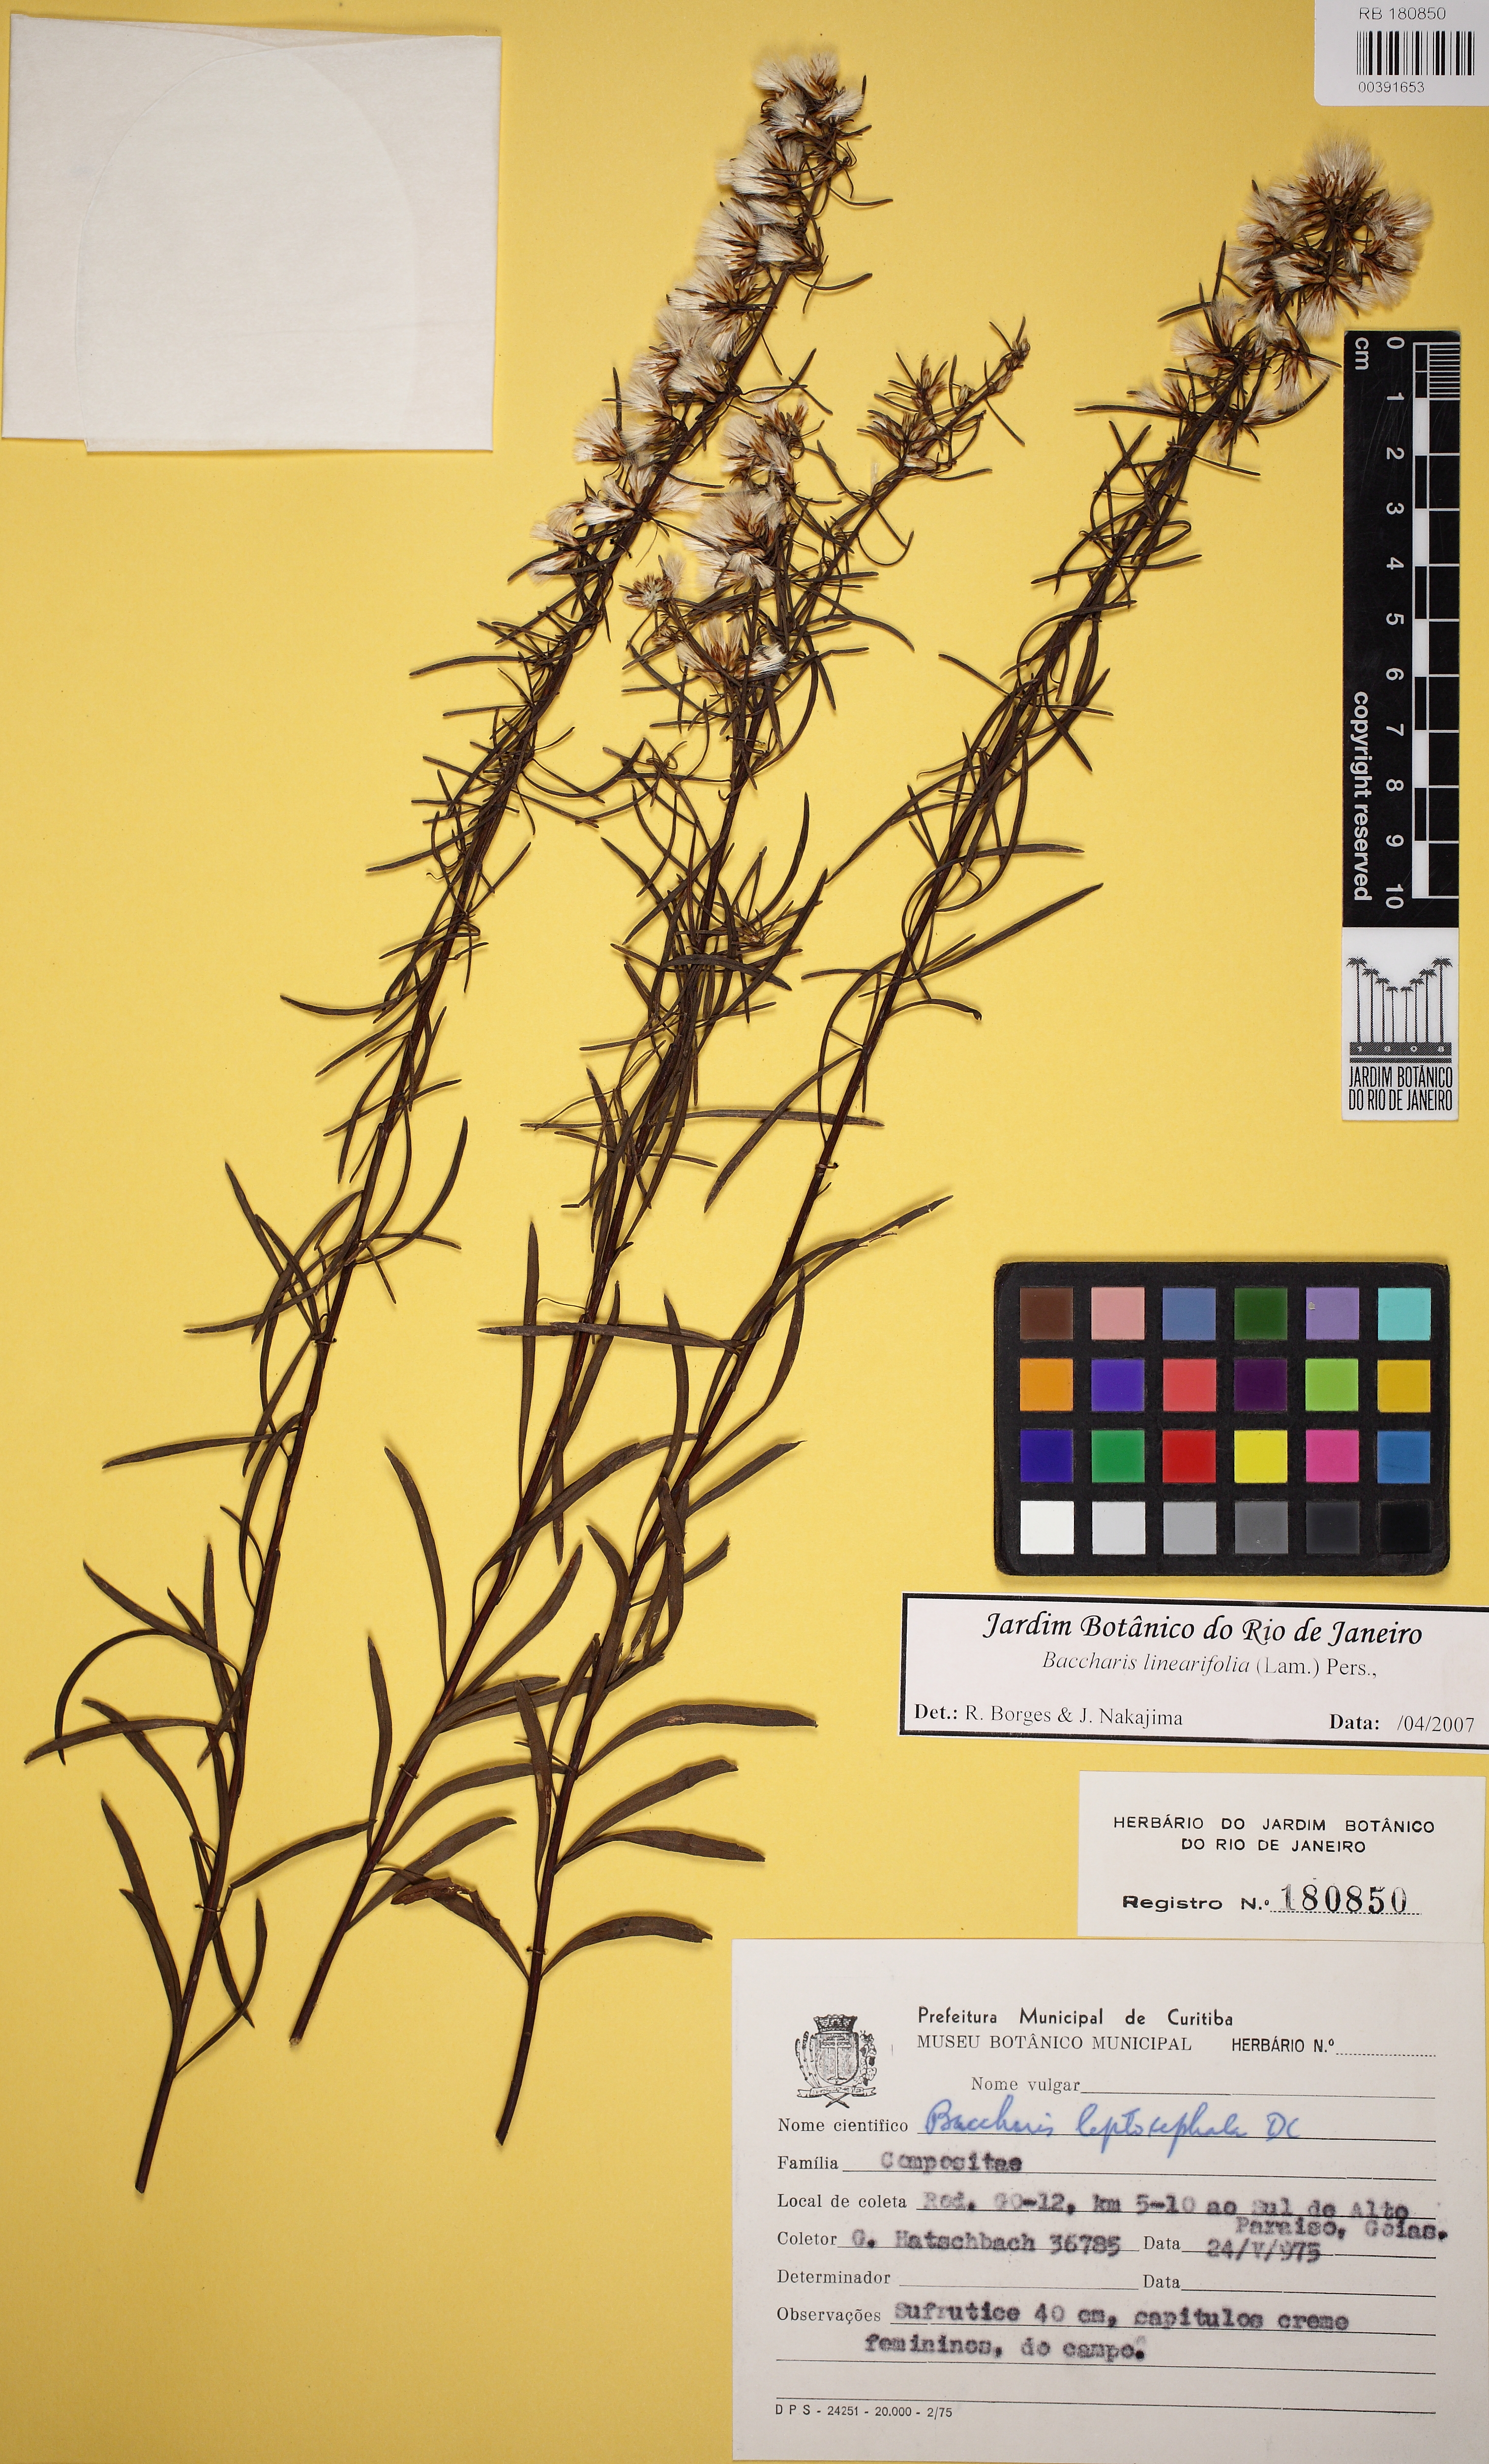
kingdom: Plantae
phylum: Tracheophyta
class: Magnoliopsida
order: Asterales
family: Asteraceae
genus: Baccharis
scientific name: Baccharis linearifolia
